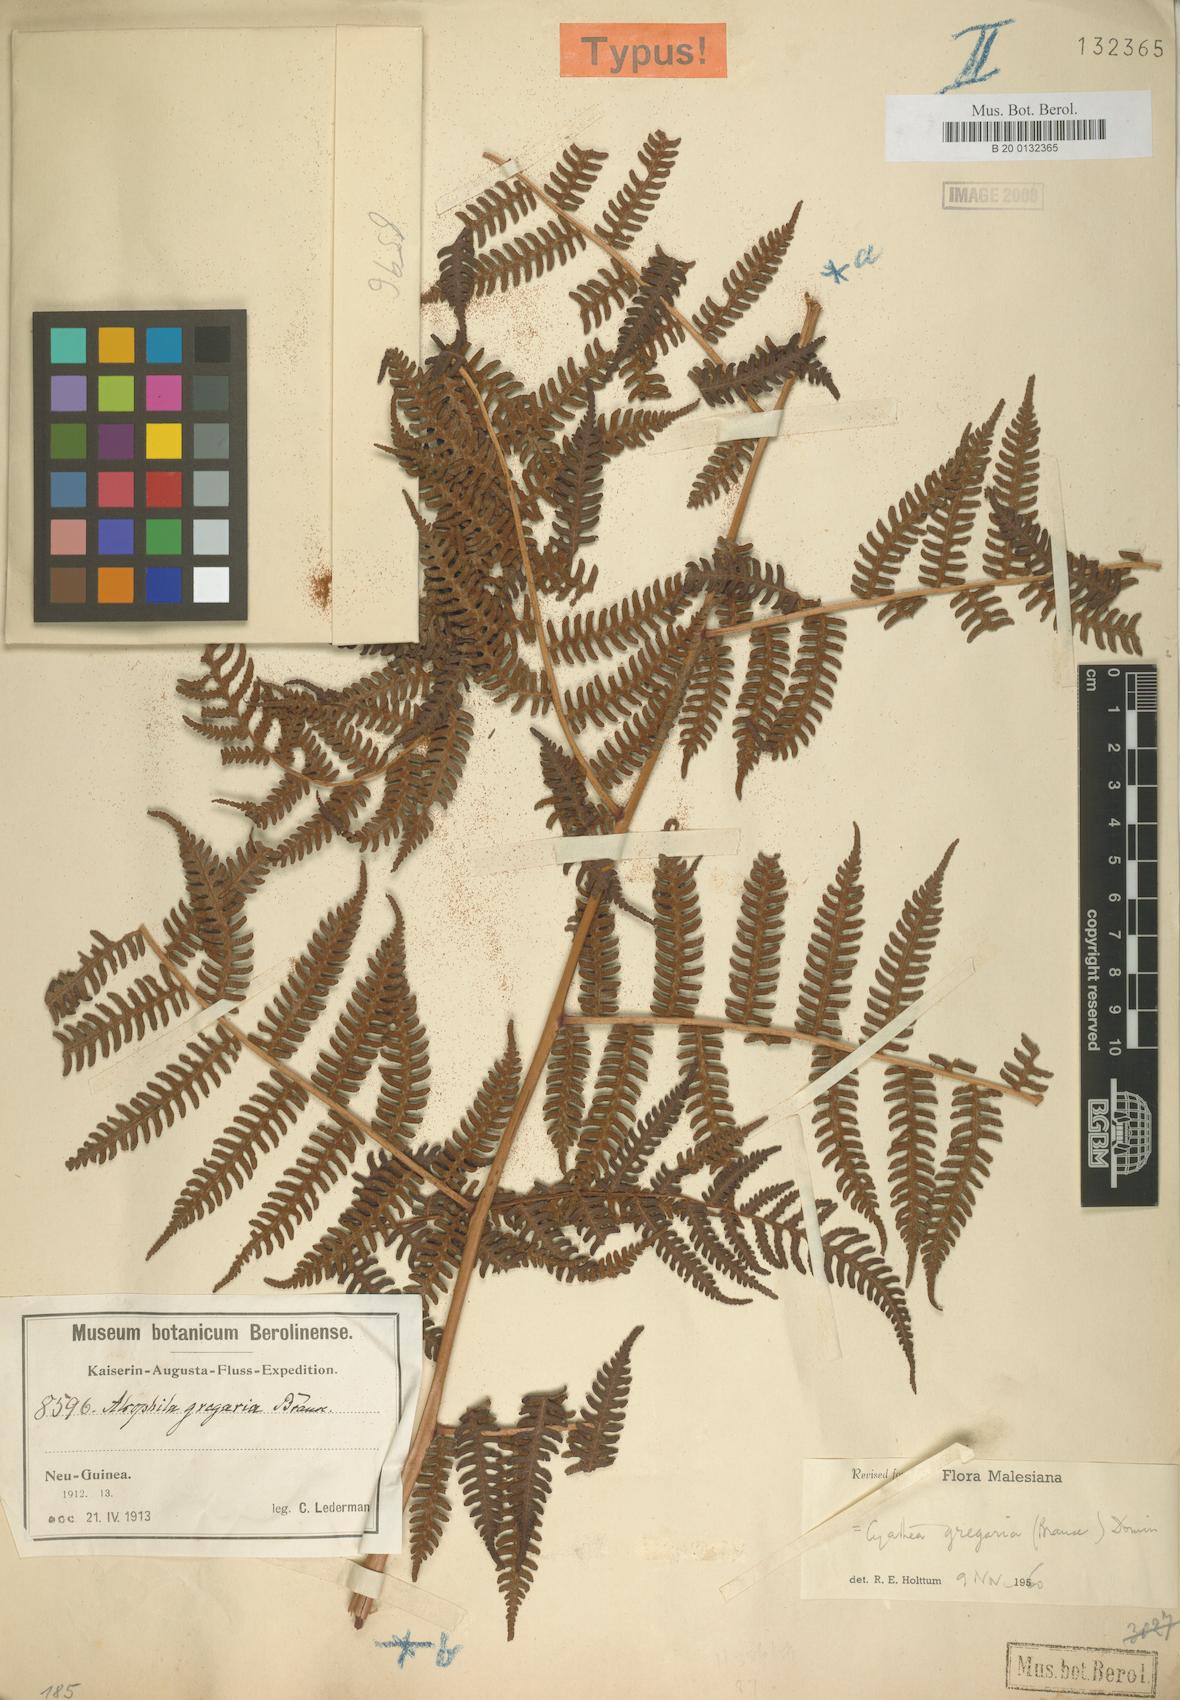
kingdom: Plantae
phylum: Tracheophyta
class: Polypodiopsida
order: Cyatheales
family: Cyatheaceae
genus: Alsophila
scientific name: Alsophila gregaria
